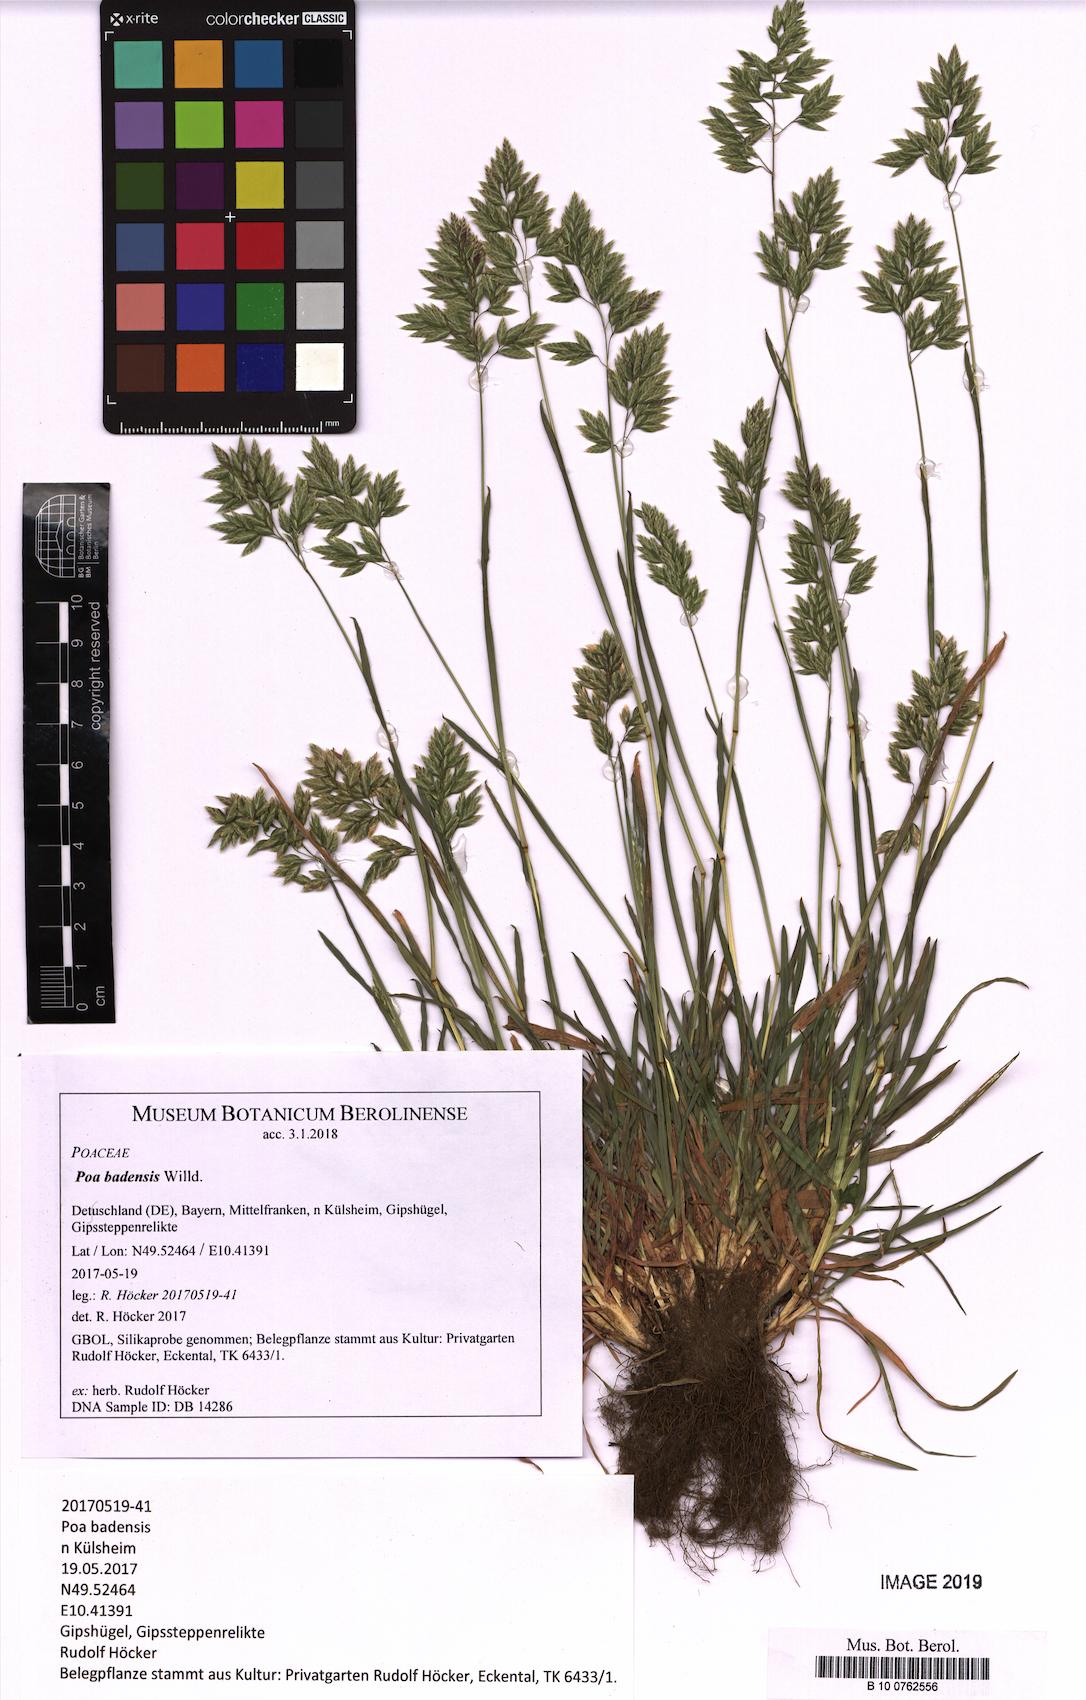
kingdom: Plantae
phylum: Tracheophyta
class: Liliopsida
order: Poales
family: Poaceae
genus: Poa
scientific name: Poa badensis
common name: Baden's bluegrass
